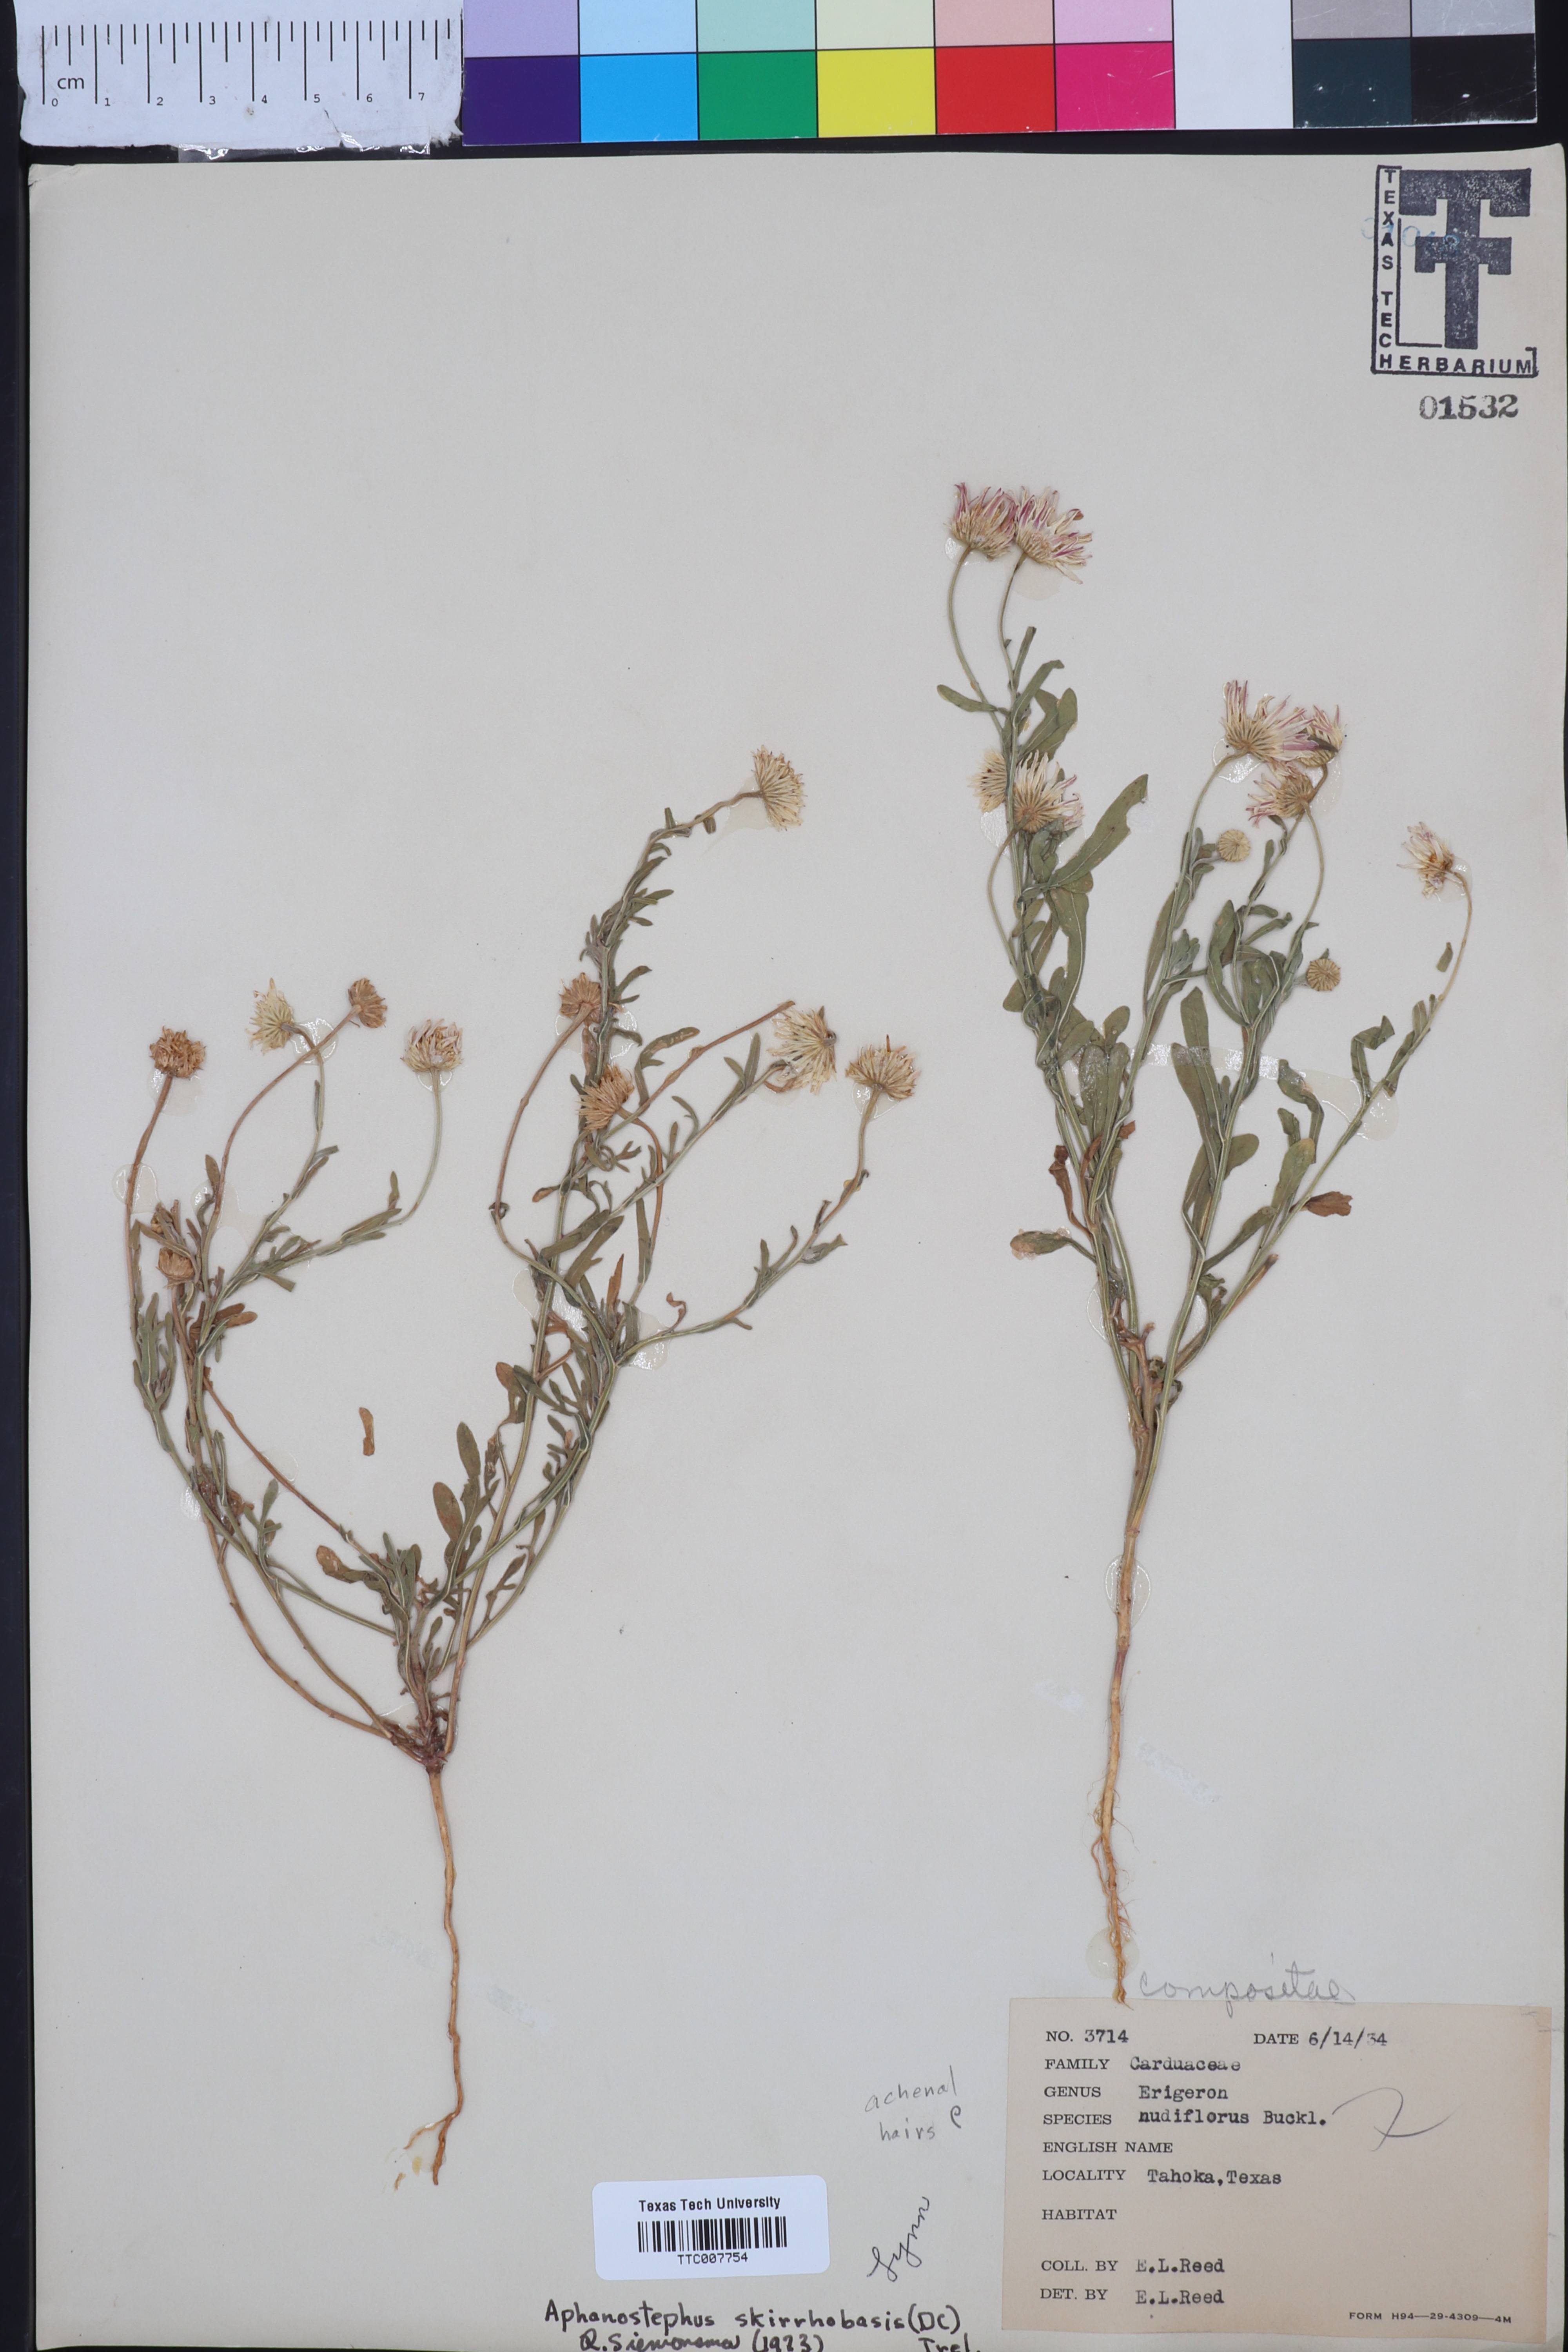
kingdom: Plantae
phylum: Tracheophyta
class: Magnoliopsida
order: Asterales
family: Asteraceae
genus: Aphanostephus
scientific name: Aphanostephus skirrhobasis
